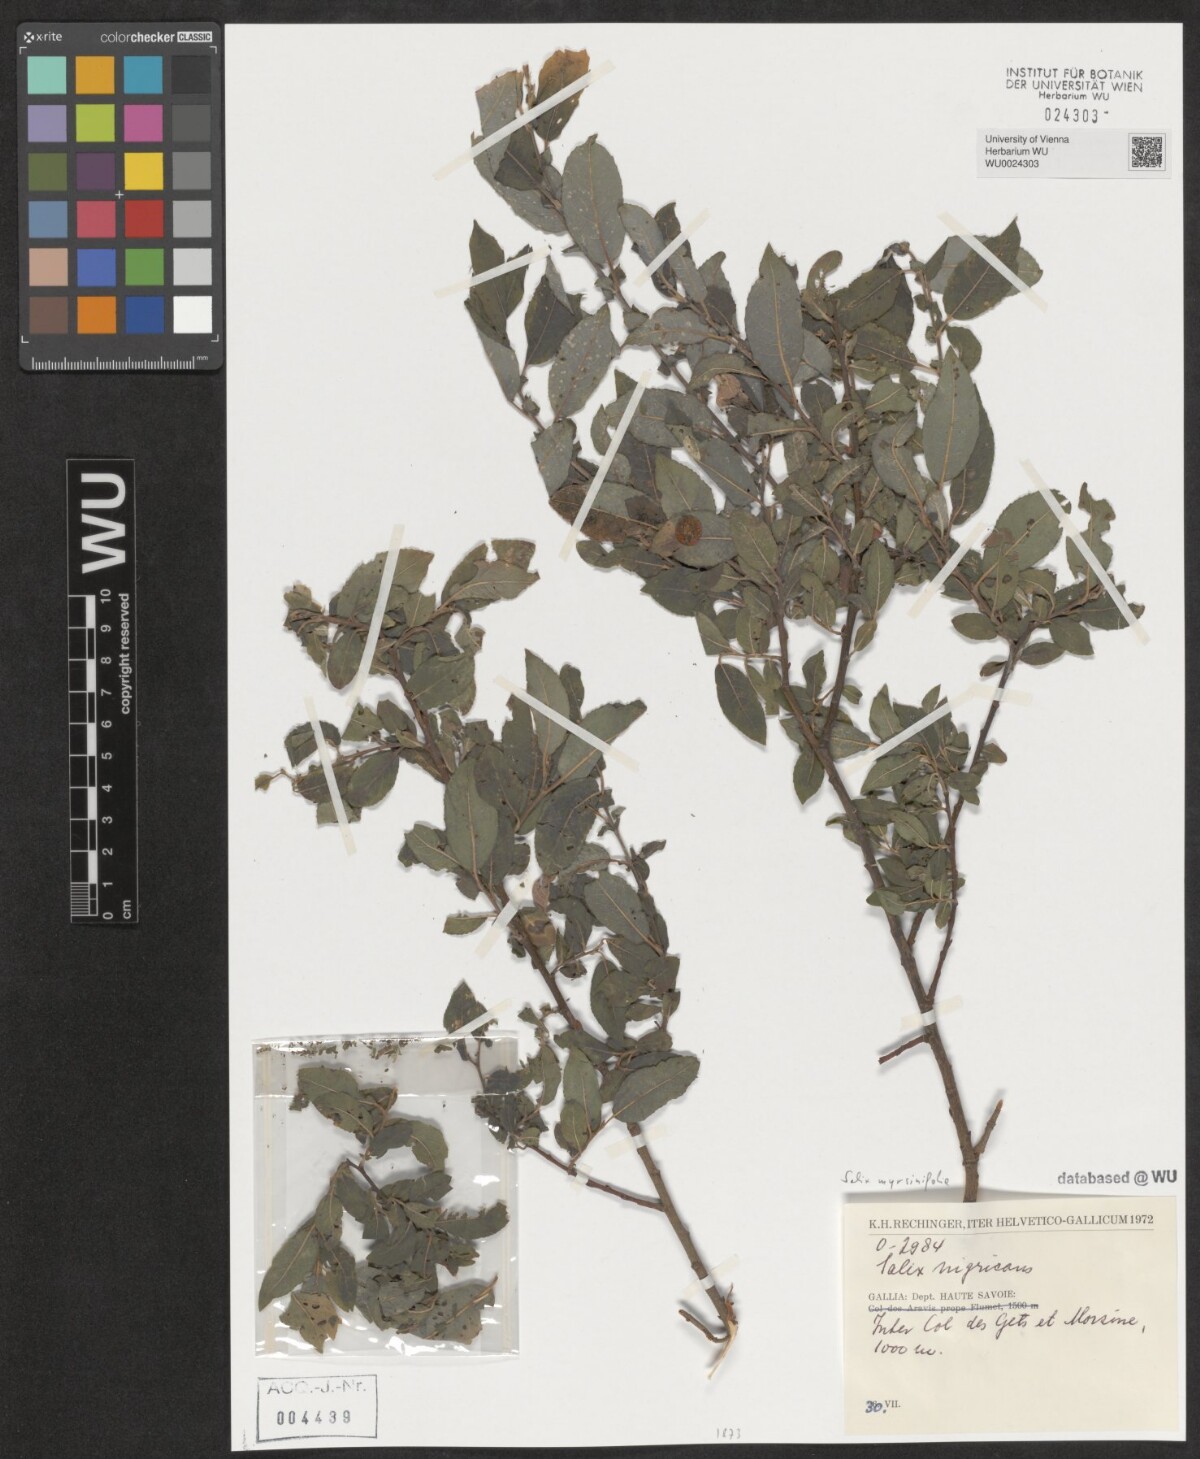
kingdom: Plantae
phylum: Tracheophyta
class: Magnoliopsida
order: Malpighiales
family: Salicaceae
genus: Salix
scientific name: Salix myrsinifolia
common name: Dark-leaved willow
